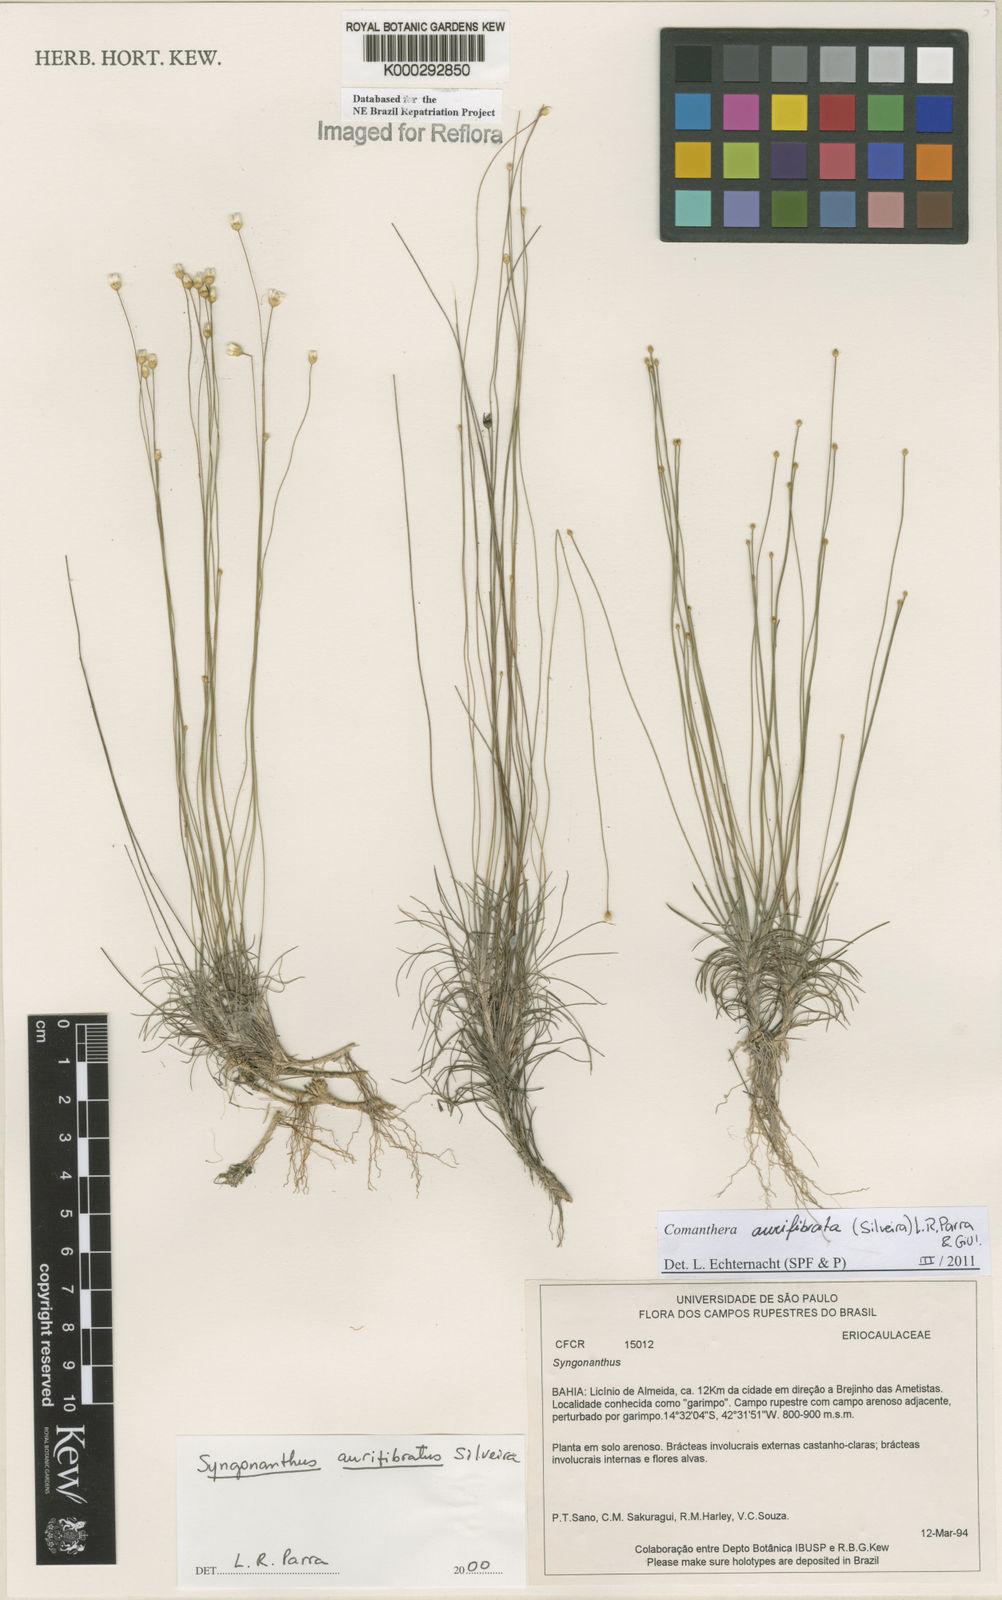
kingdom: Plantae
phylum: Tracheophyta
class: Liliopsida
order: Poales
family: Eriocaulaceae
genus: Syngonanthus
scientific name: Syngonanthus
